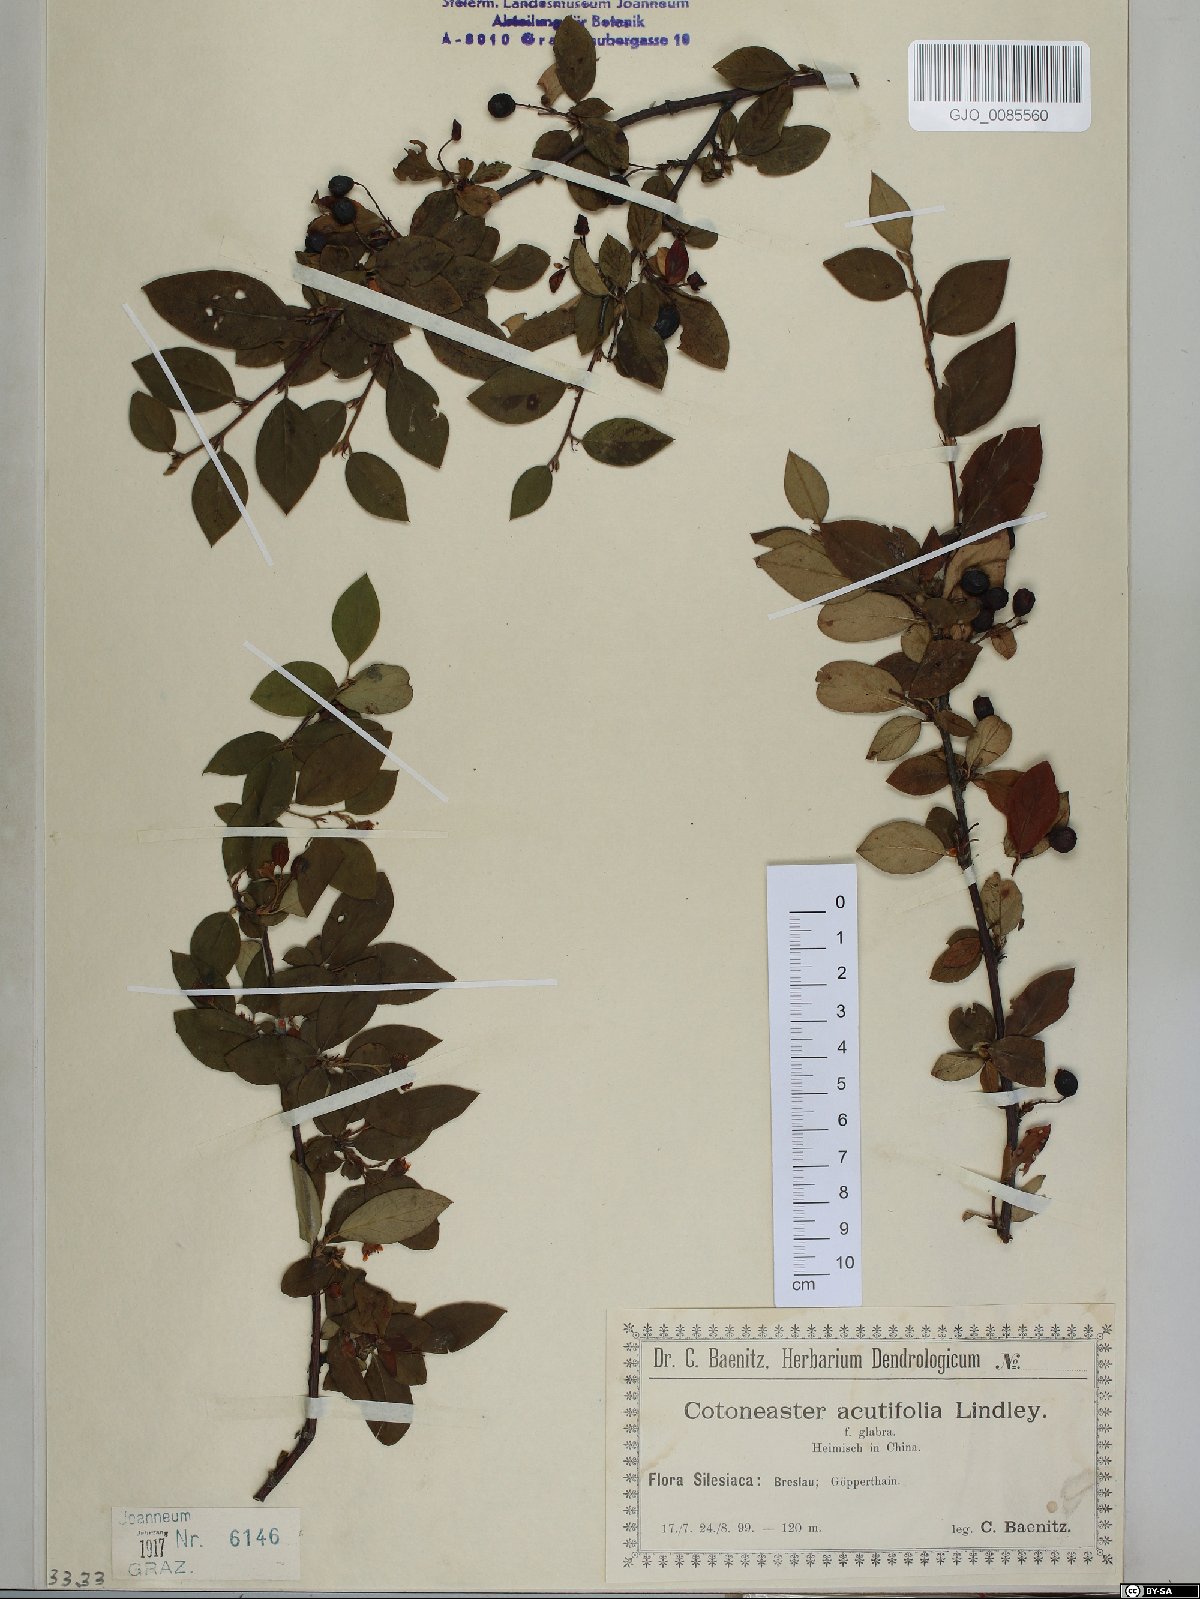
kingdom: Plantae
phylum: Tracheophyta
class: Magnoliopsida
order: Rosales
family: Rosaceae
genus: Cotoneaster
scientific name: Cotoneaster acutifolius
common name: Peking cotoneaster
